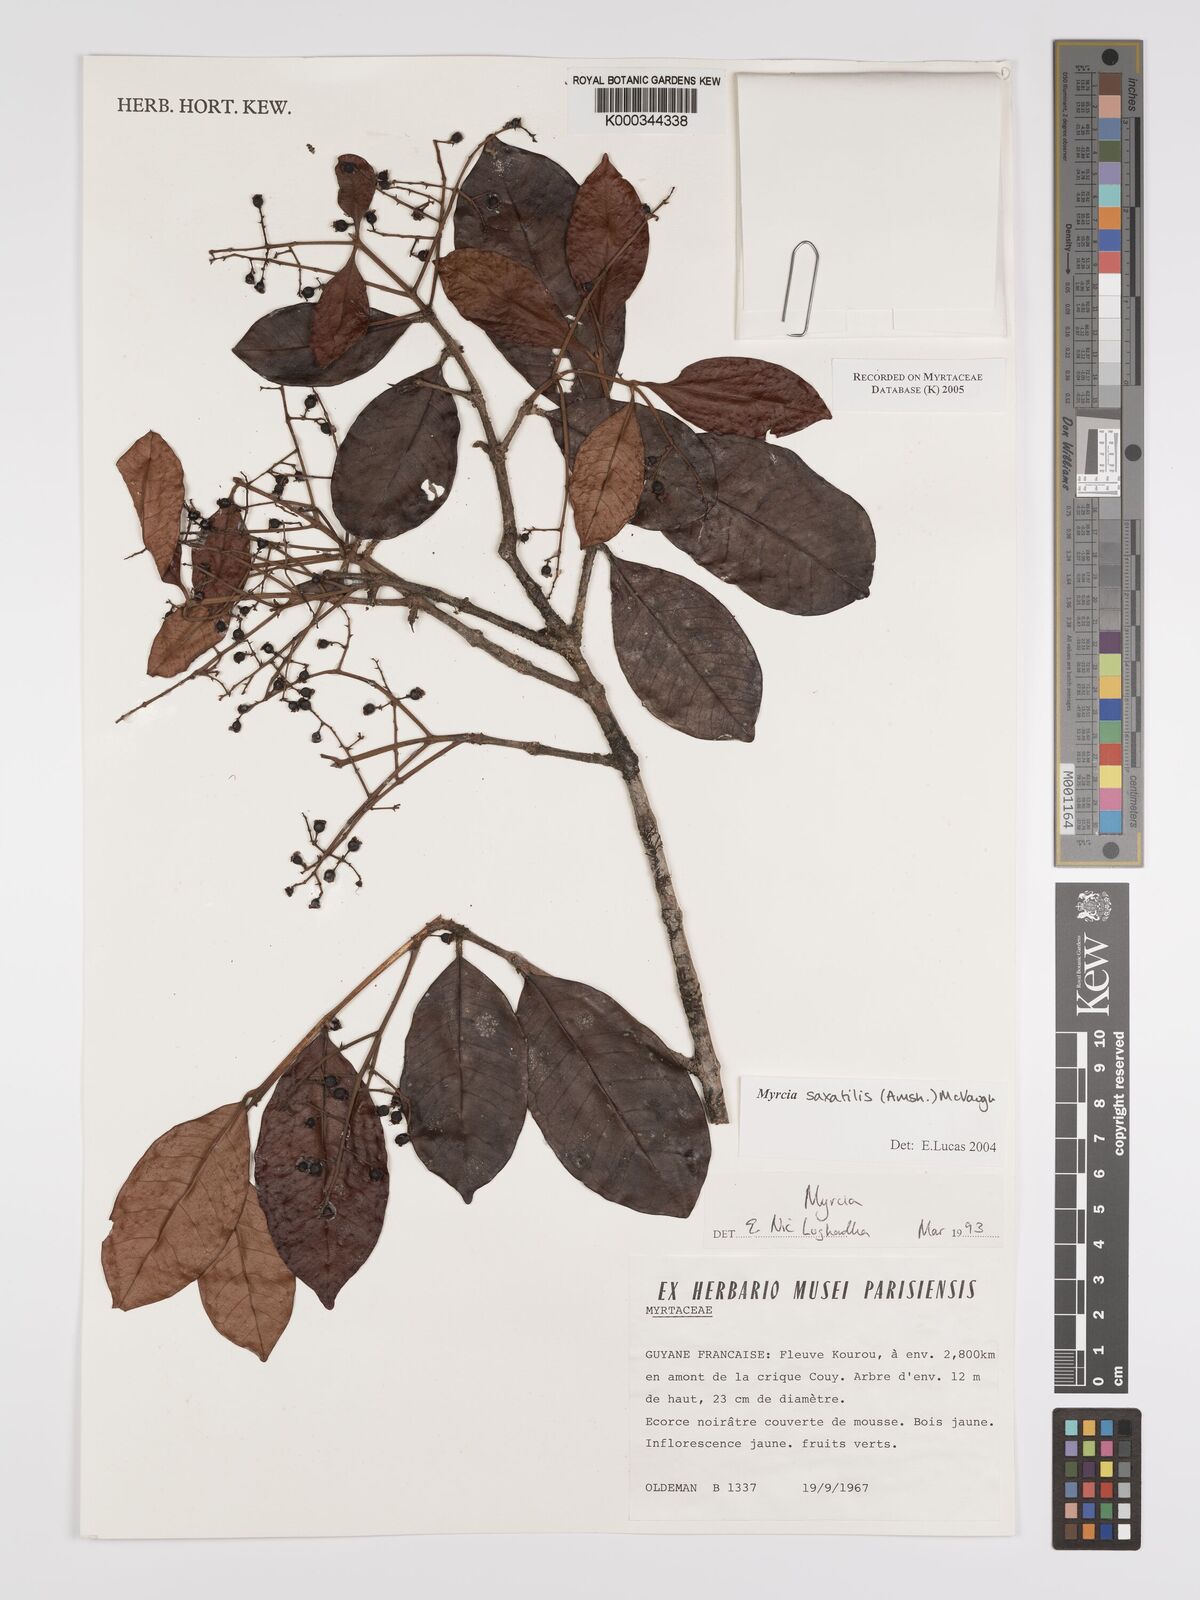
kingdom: Plantae
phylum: Tracheophyta
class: Magnoliopsida
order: Myrtales
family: Myrtaceae
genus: Myrcia
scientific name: Myrcia saxatilis
